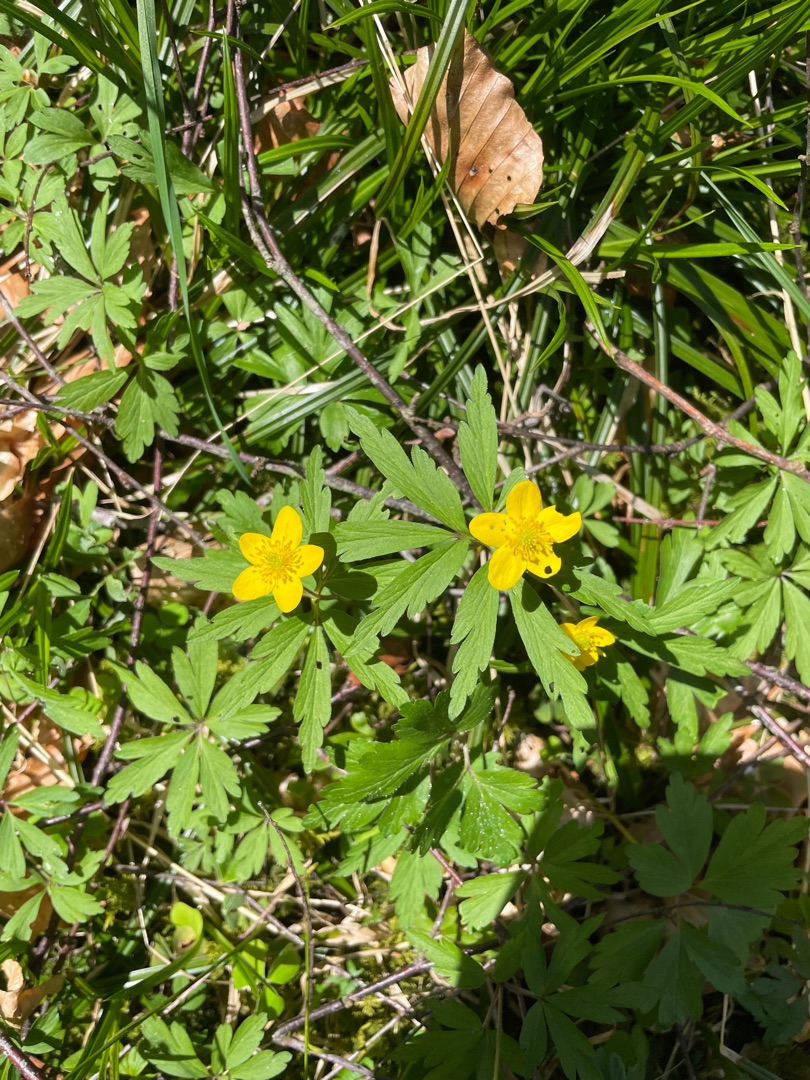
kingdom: Plantae
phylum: Tracheophyta
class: Magnoliopsida
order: Ranunculales
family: Ranunculaceae
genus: Anemone
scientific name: Anemone ranunculoides
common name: Gul anemone
